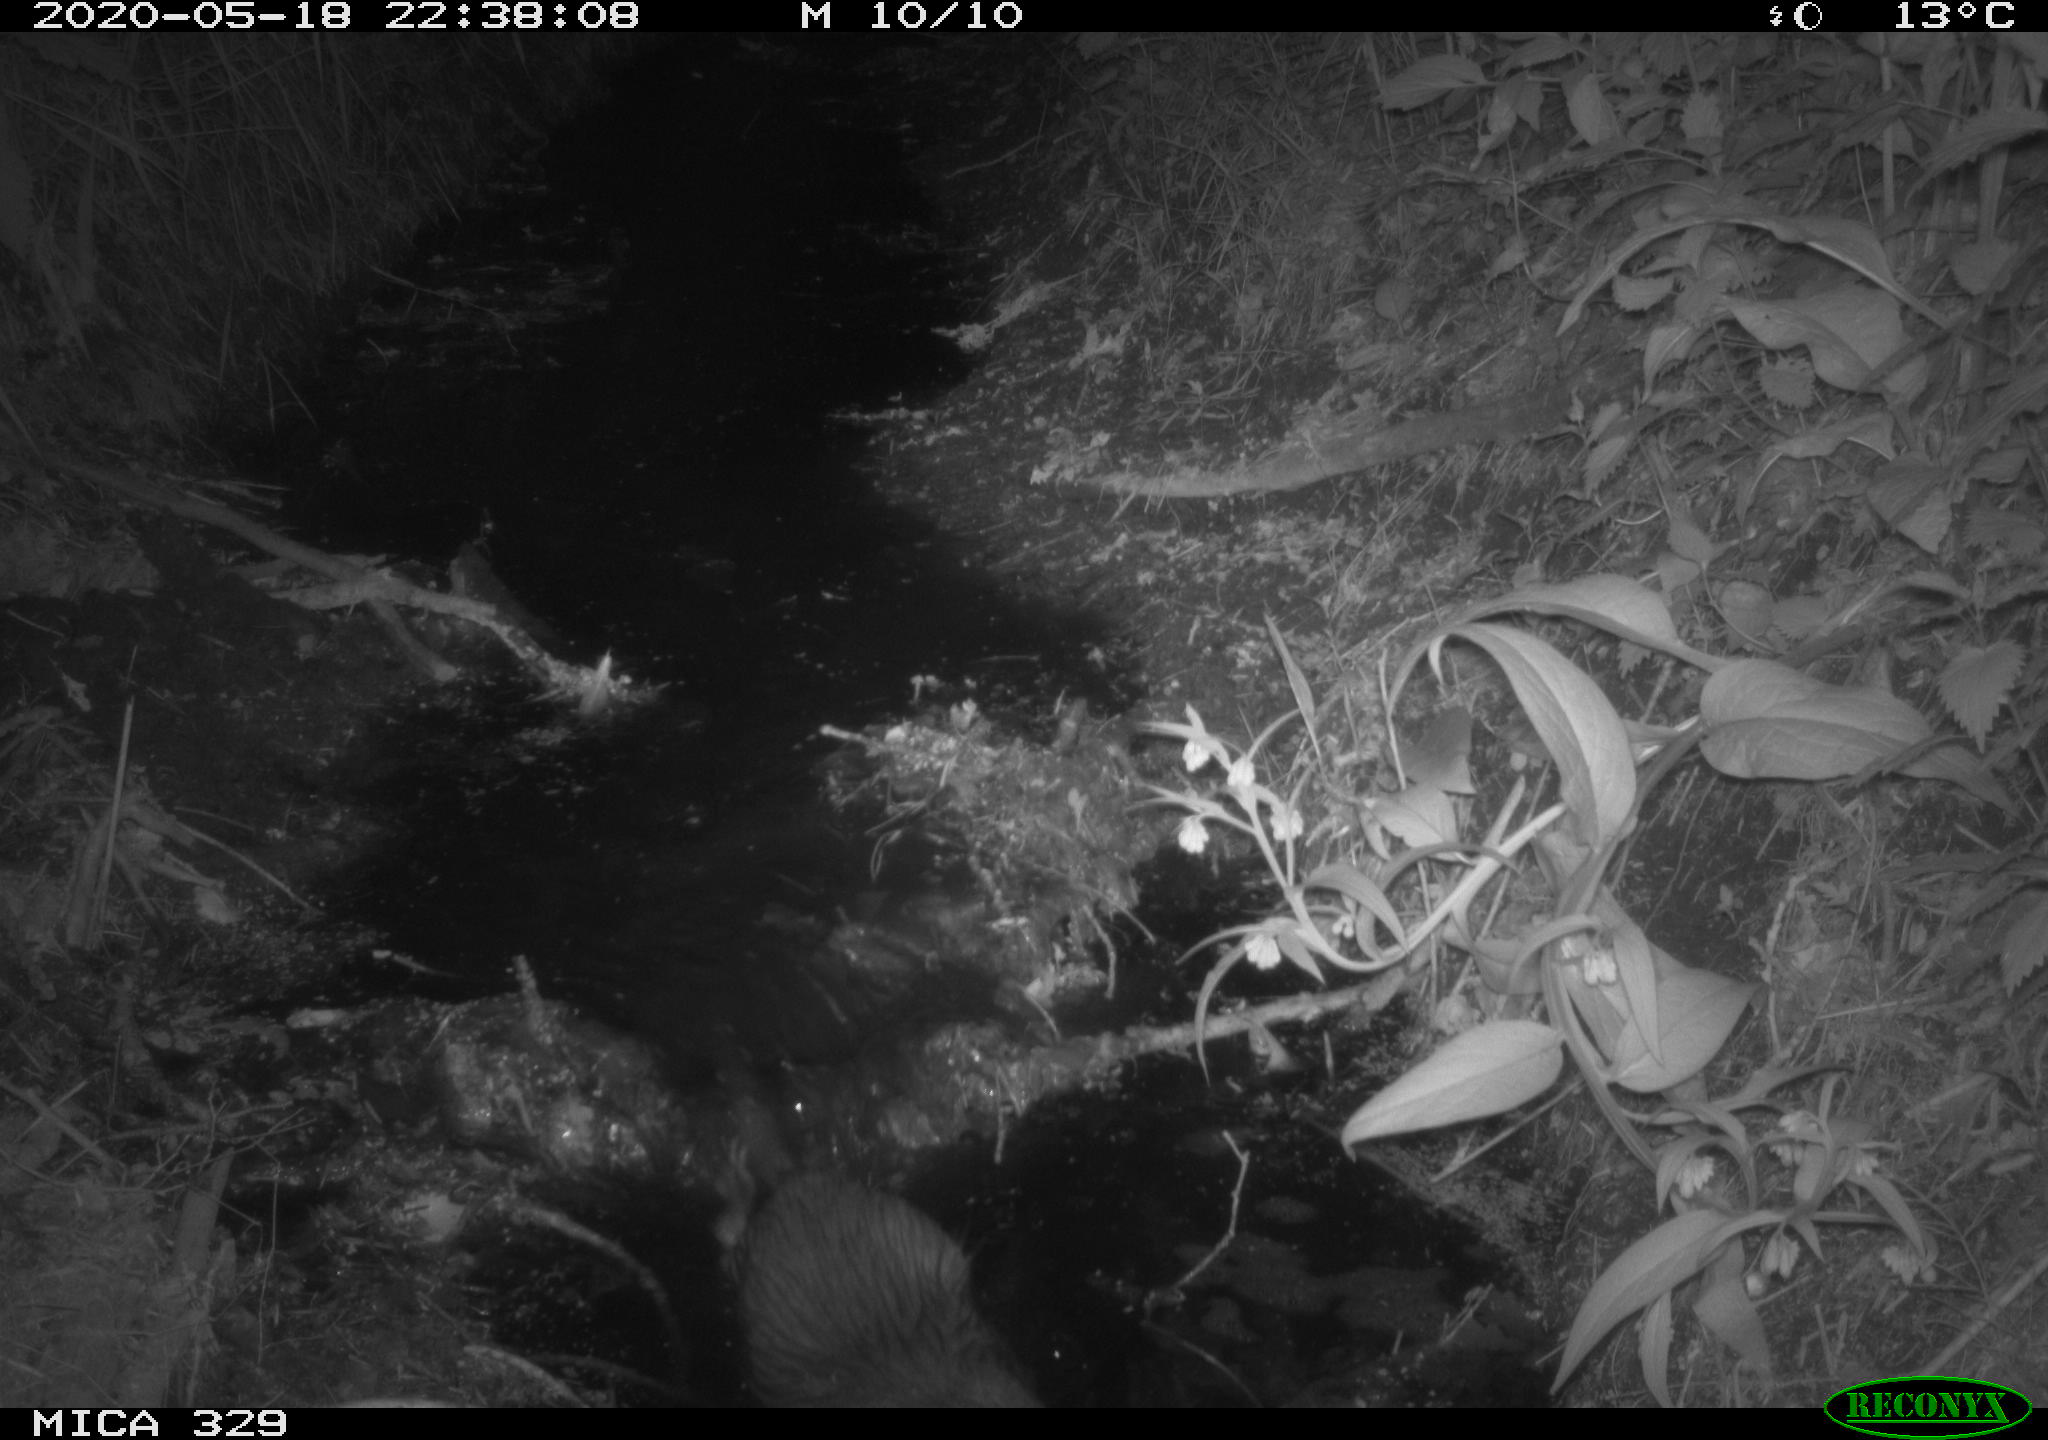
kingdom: Animalia
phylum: Chordata
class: Mammalia
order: Rodentia
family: Myocastoridae
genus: Myocastor
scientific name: Myocastor coypus
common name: Coypu
